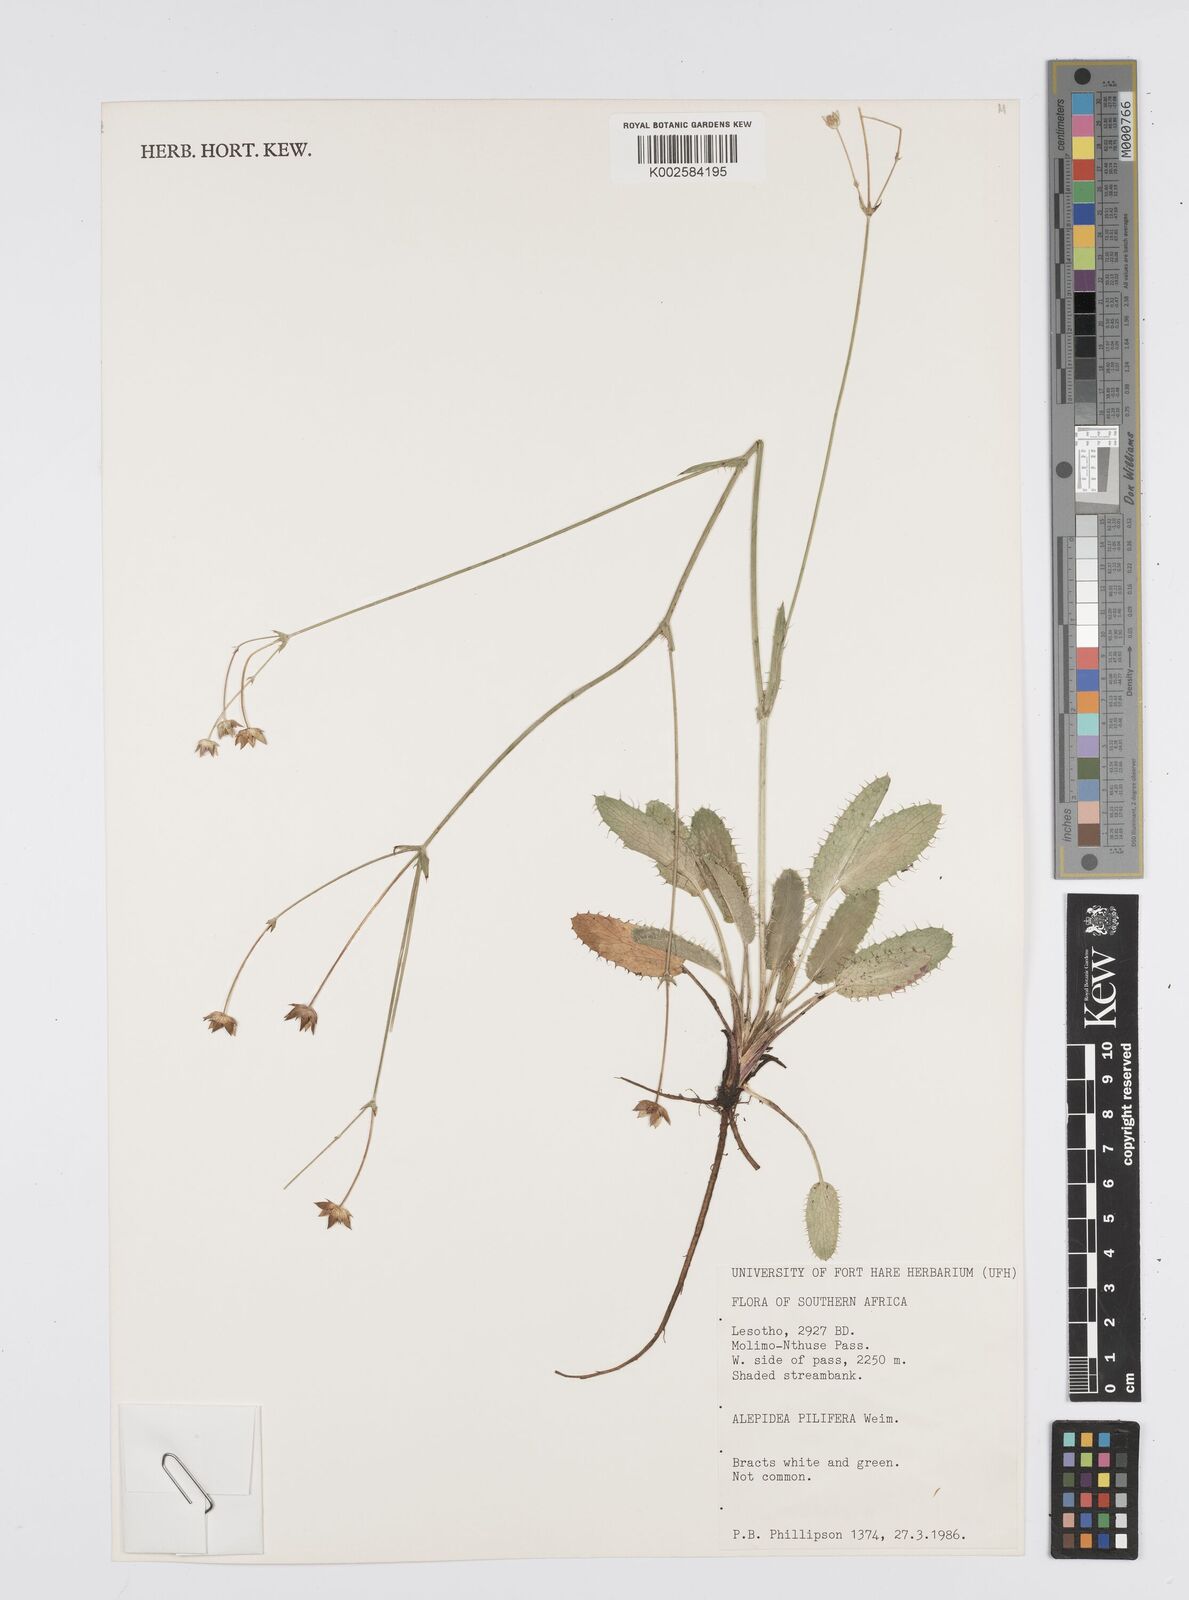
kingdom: Plantae
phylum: Tracheophyta
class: Magnoliopsida
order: Apiales
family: Apiaceae
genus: Alepidea
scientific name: Alepidea pilifera
